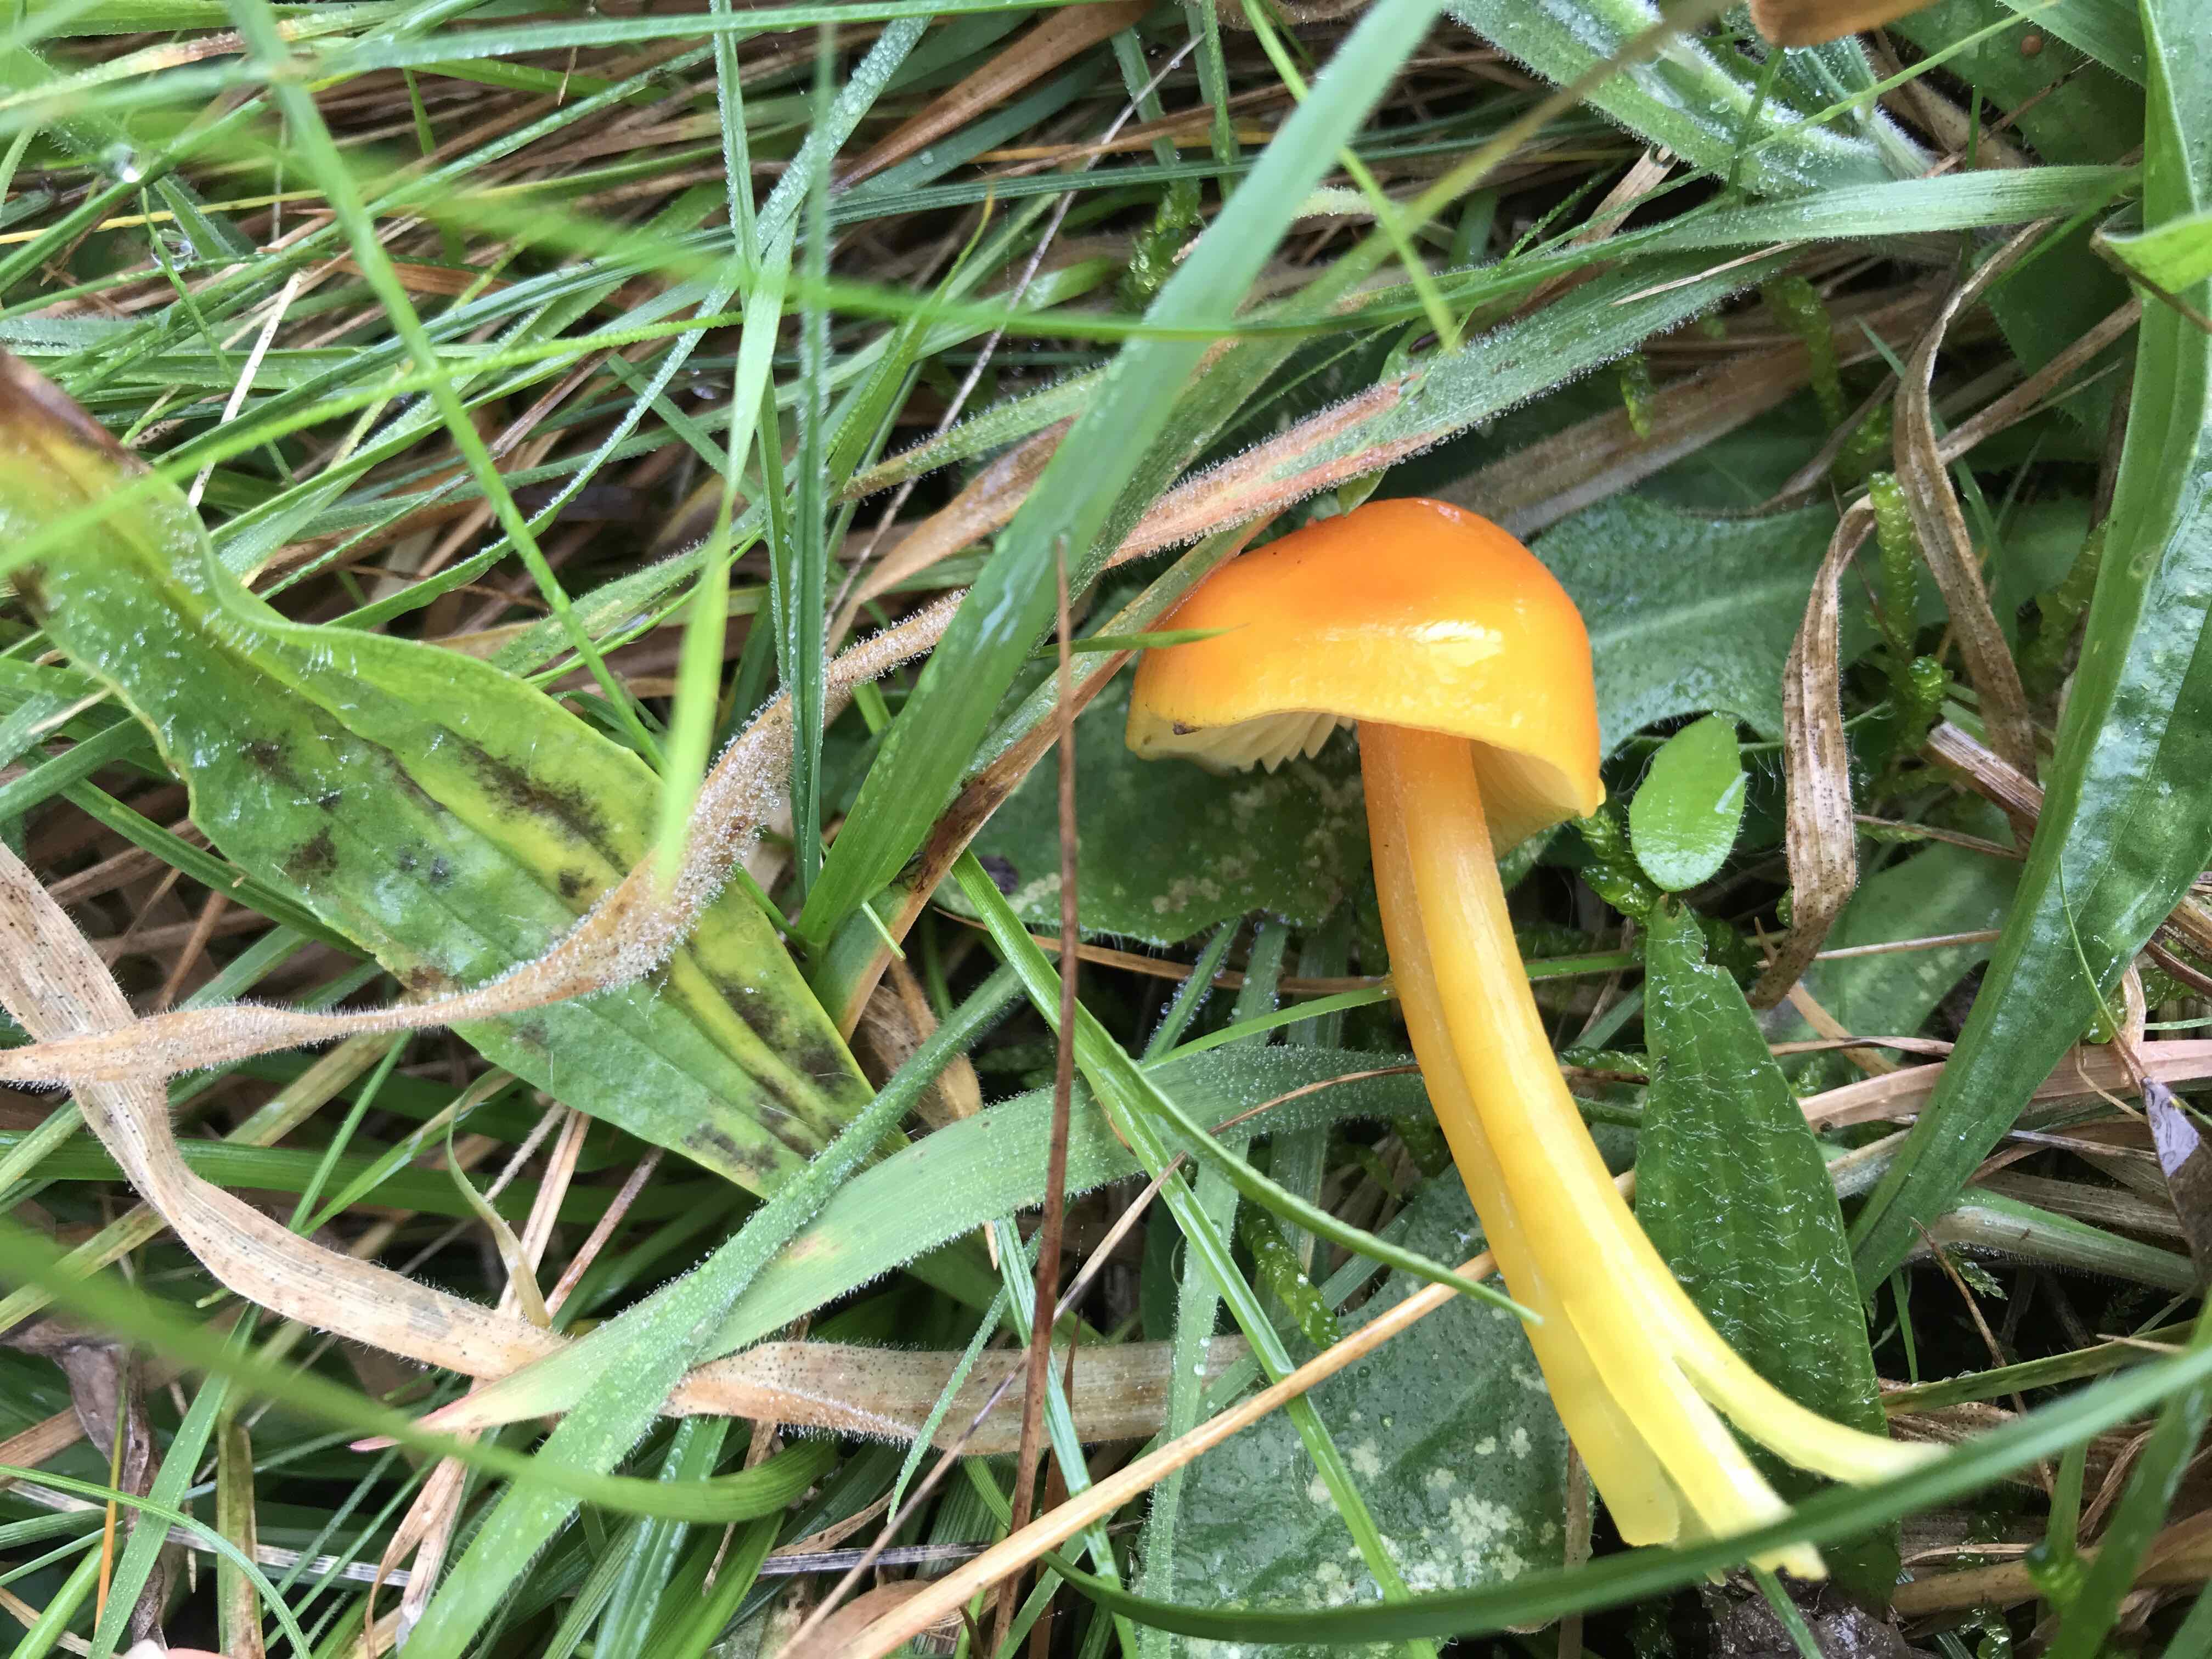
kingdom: Fungi
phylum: Basidiomycota
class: Agaricomycetes
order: Agaricales
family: Hygrophoraceae
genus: Hygrocybe
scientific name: Hygrocybe chlorophana
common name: gul vokshat
